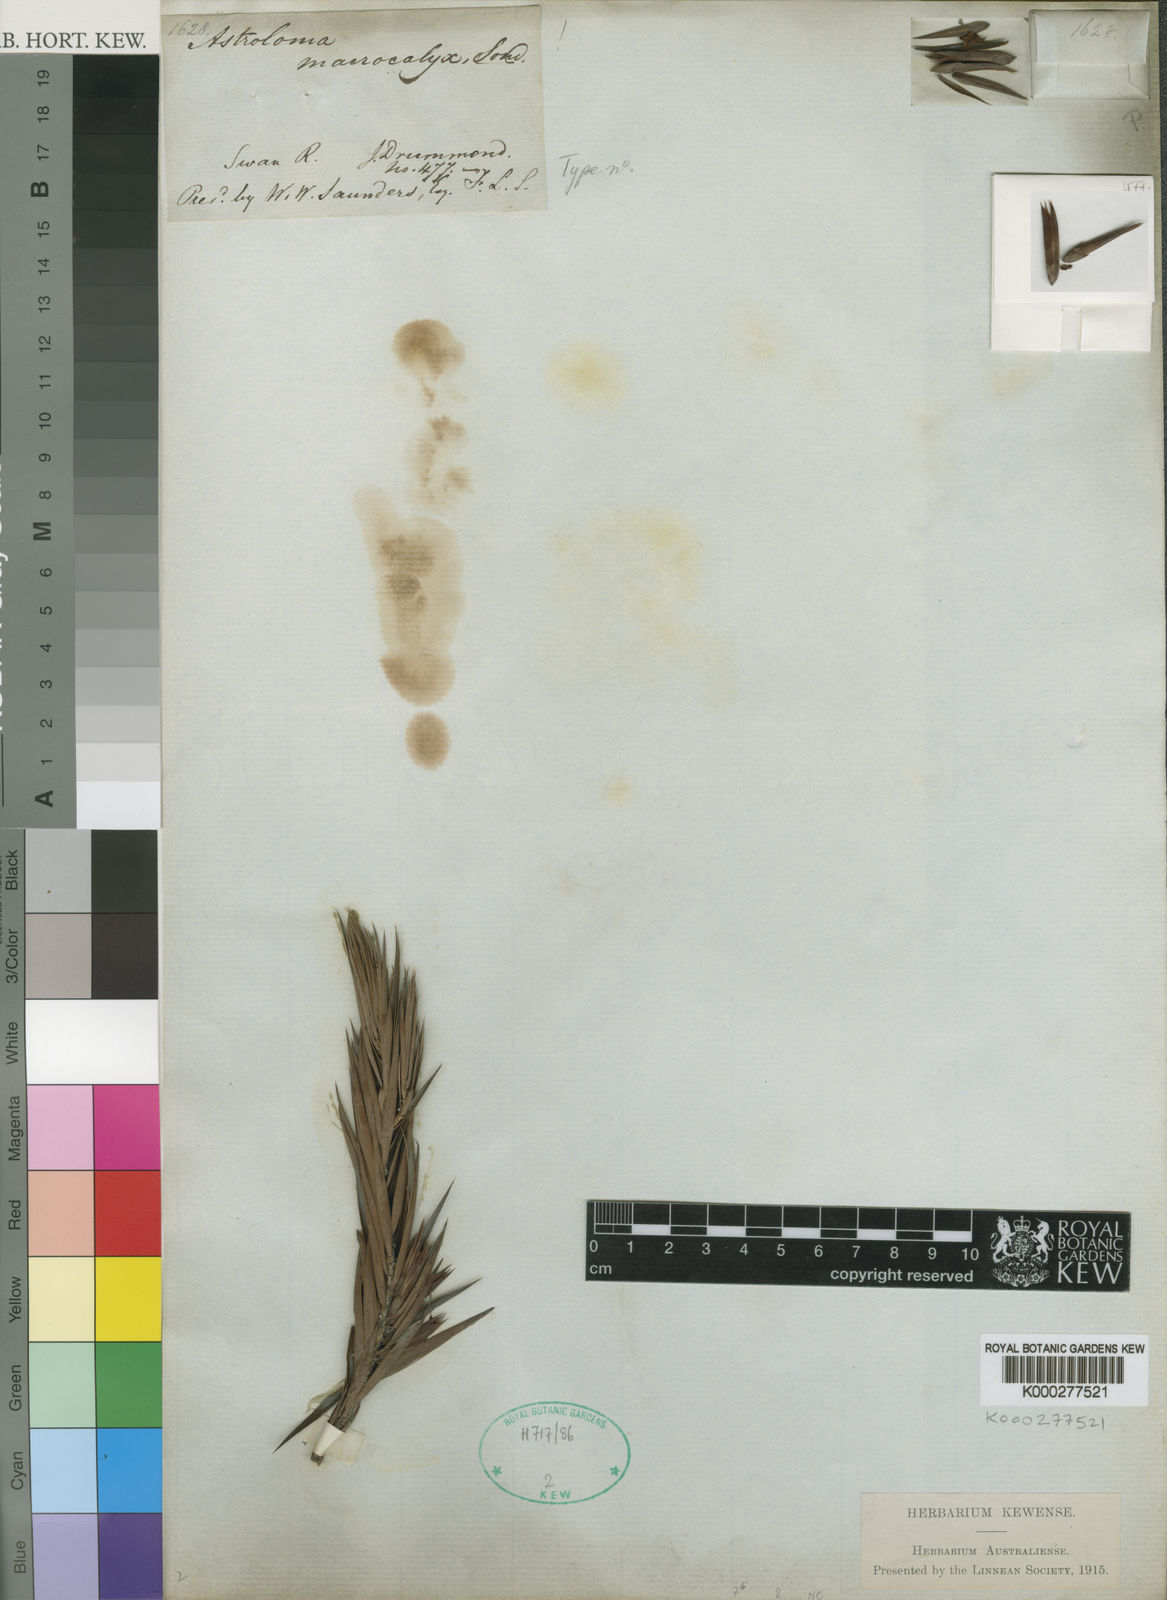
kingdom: Plantae
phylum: Tracheophyta
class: Magnoliopsida
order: Ericales
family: Ericaceae
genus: Styphelia
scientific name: Styphelia macrocalyx
